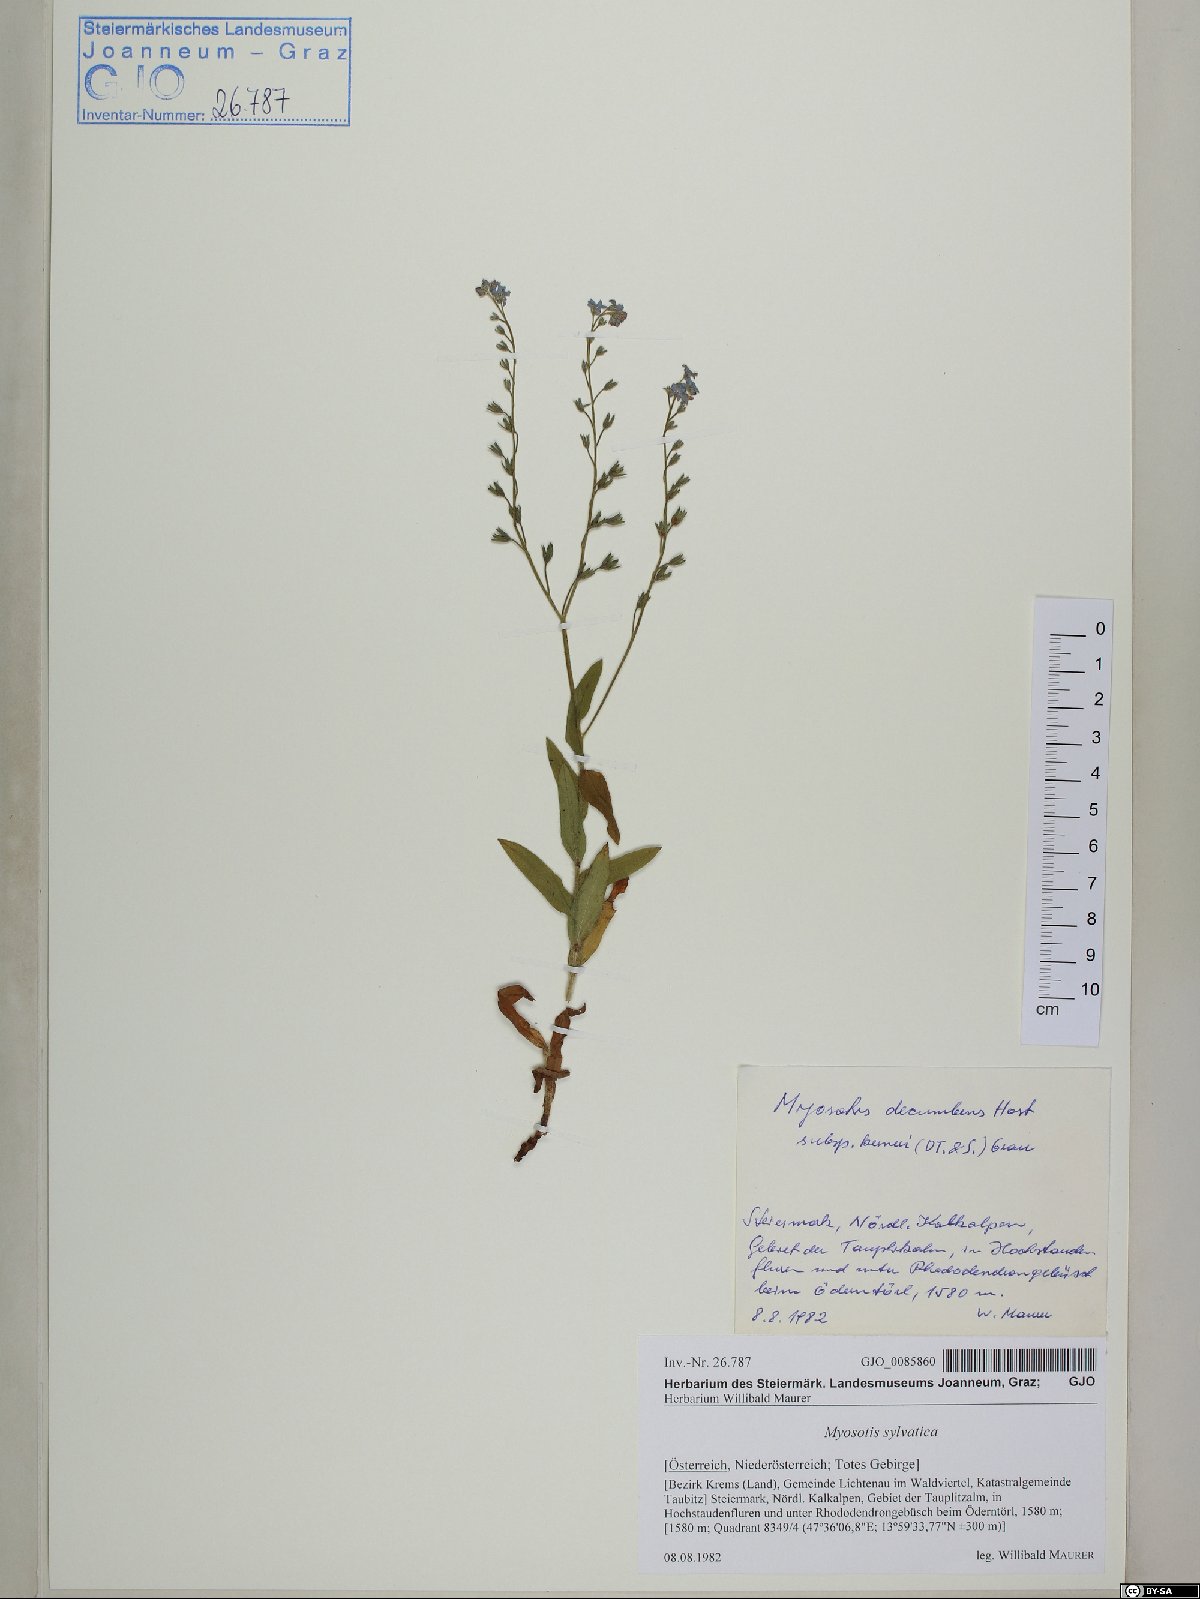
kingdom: Plantae
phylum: Tracheophyta
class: Magnoliopsida
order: Boraginales
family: Boraginaceae
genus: Myosotis
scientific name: Myosotis sylvatica
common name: Wood forget-me-not
